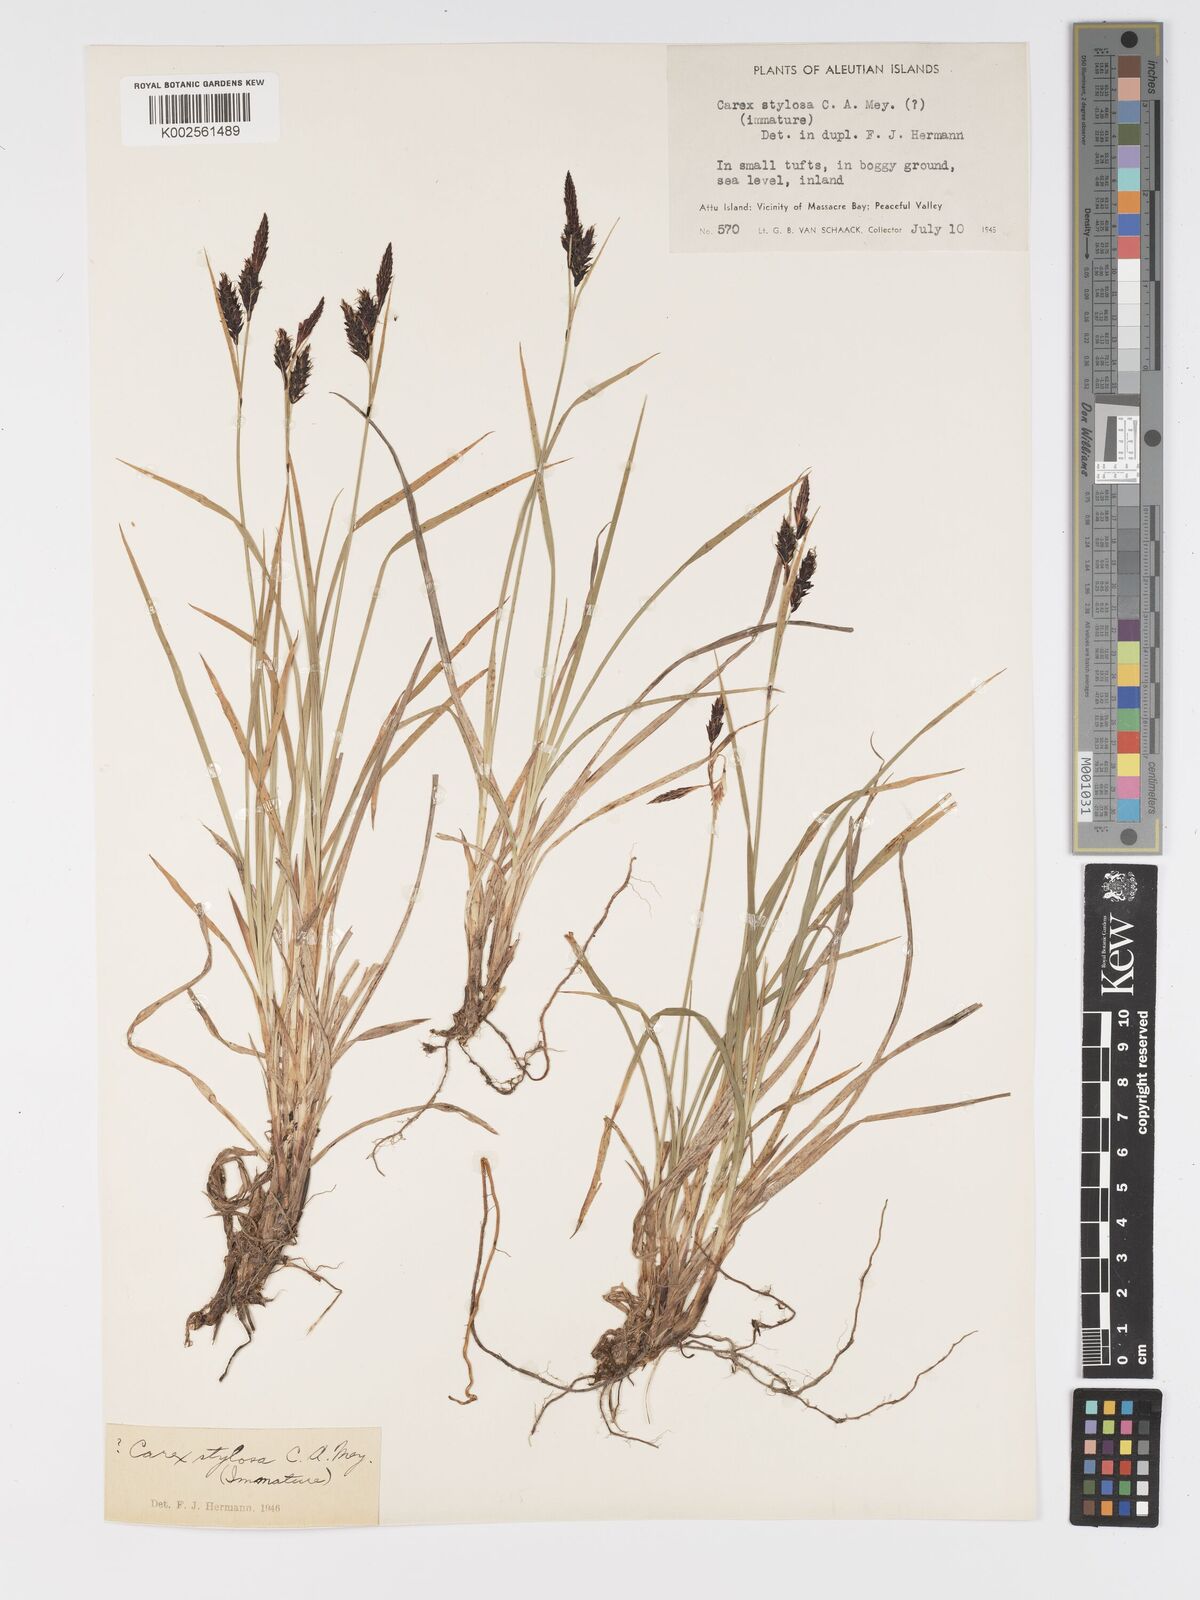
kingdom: Plantae
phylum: Tracheophyta
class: Liliopsida
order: Poales
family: Cyperaceae
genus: Carex
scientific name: Carex stylosa
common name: Long-styled sedge
